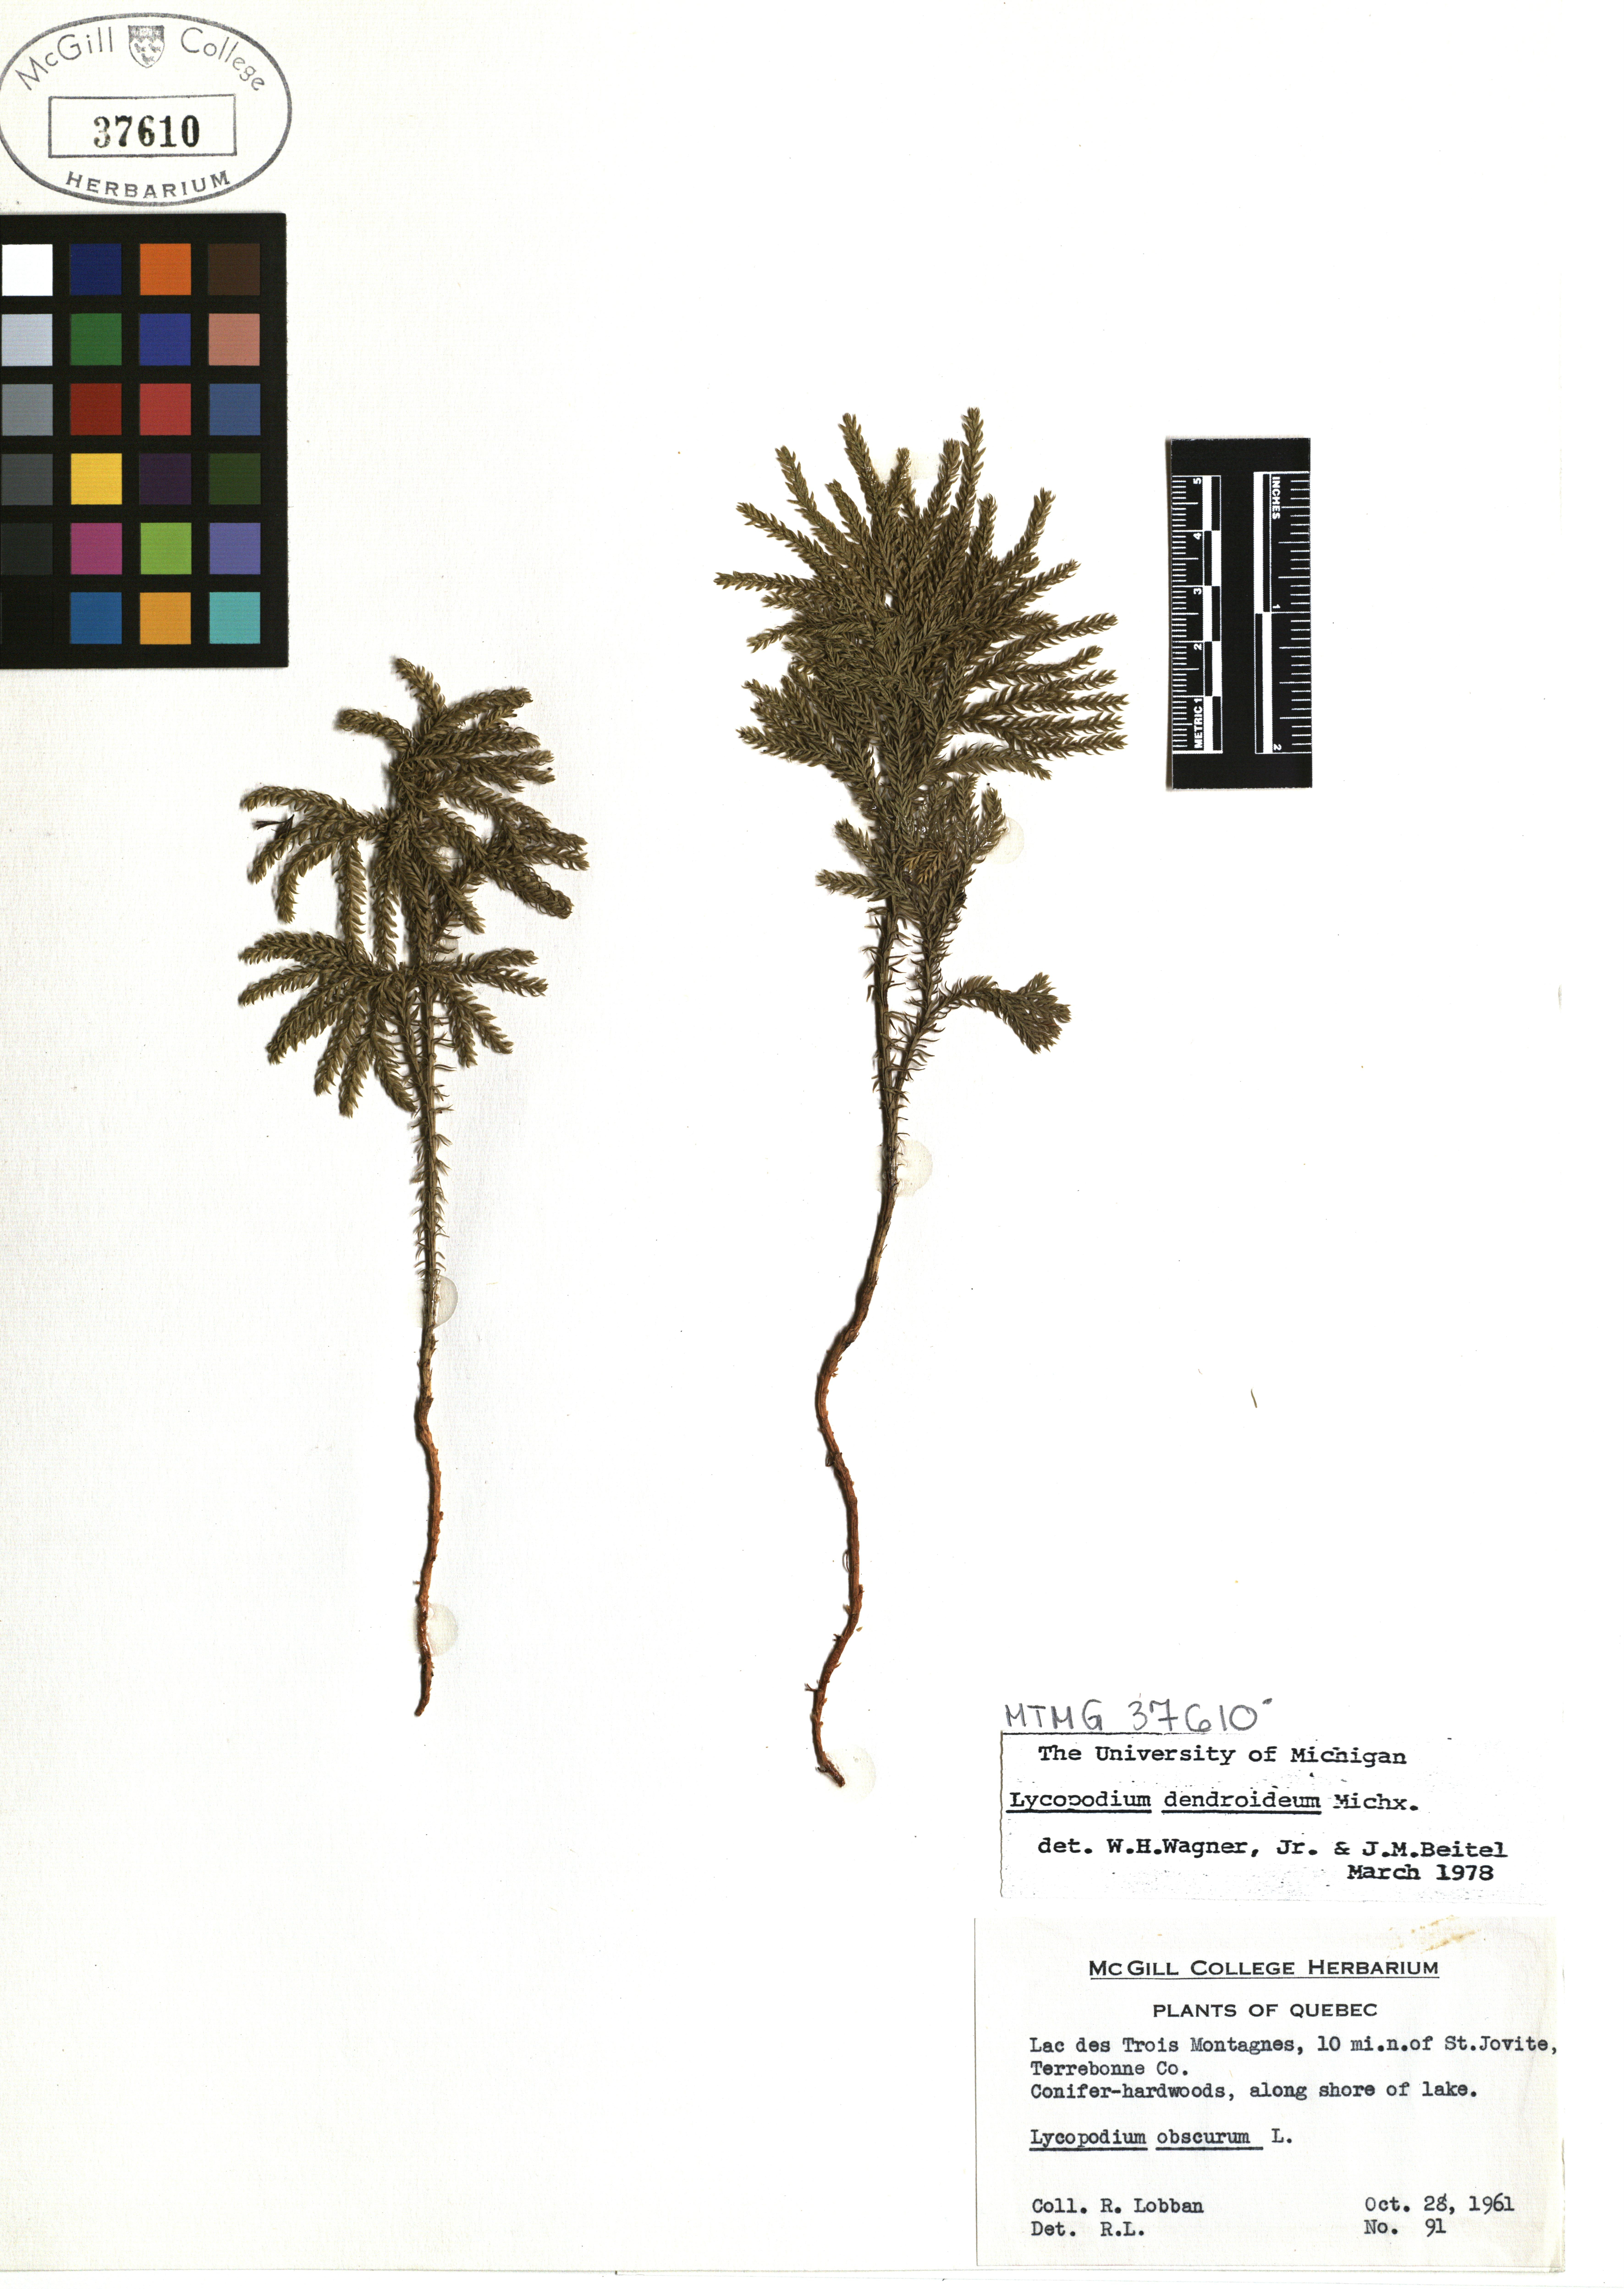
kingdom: Plantae
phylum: Tracheophyta
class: Lycopodiopsida
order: Lycopodiales
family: Lycopodiaceae
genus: Dendrolycopodium
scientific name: Dendrolycopodium dendroideum
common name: Northern tree-clubmoss
